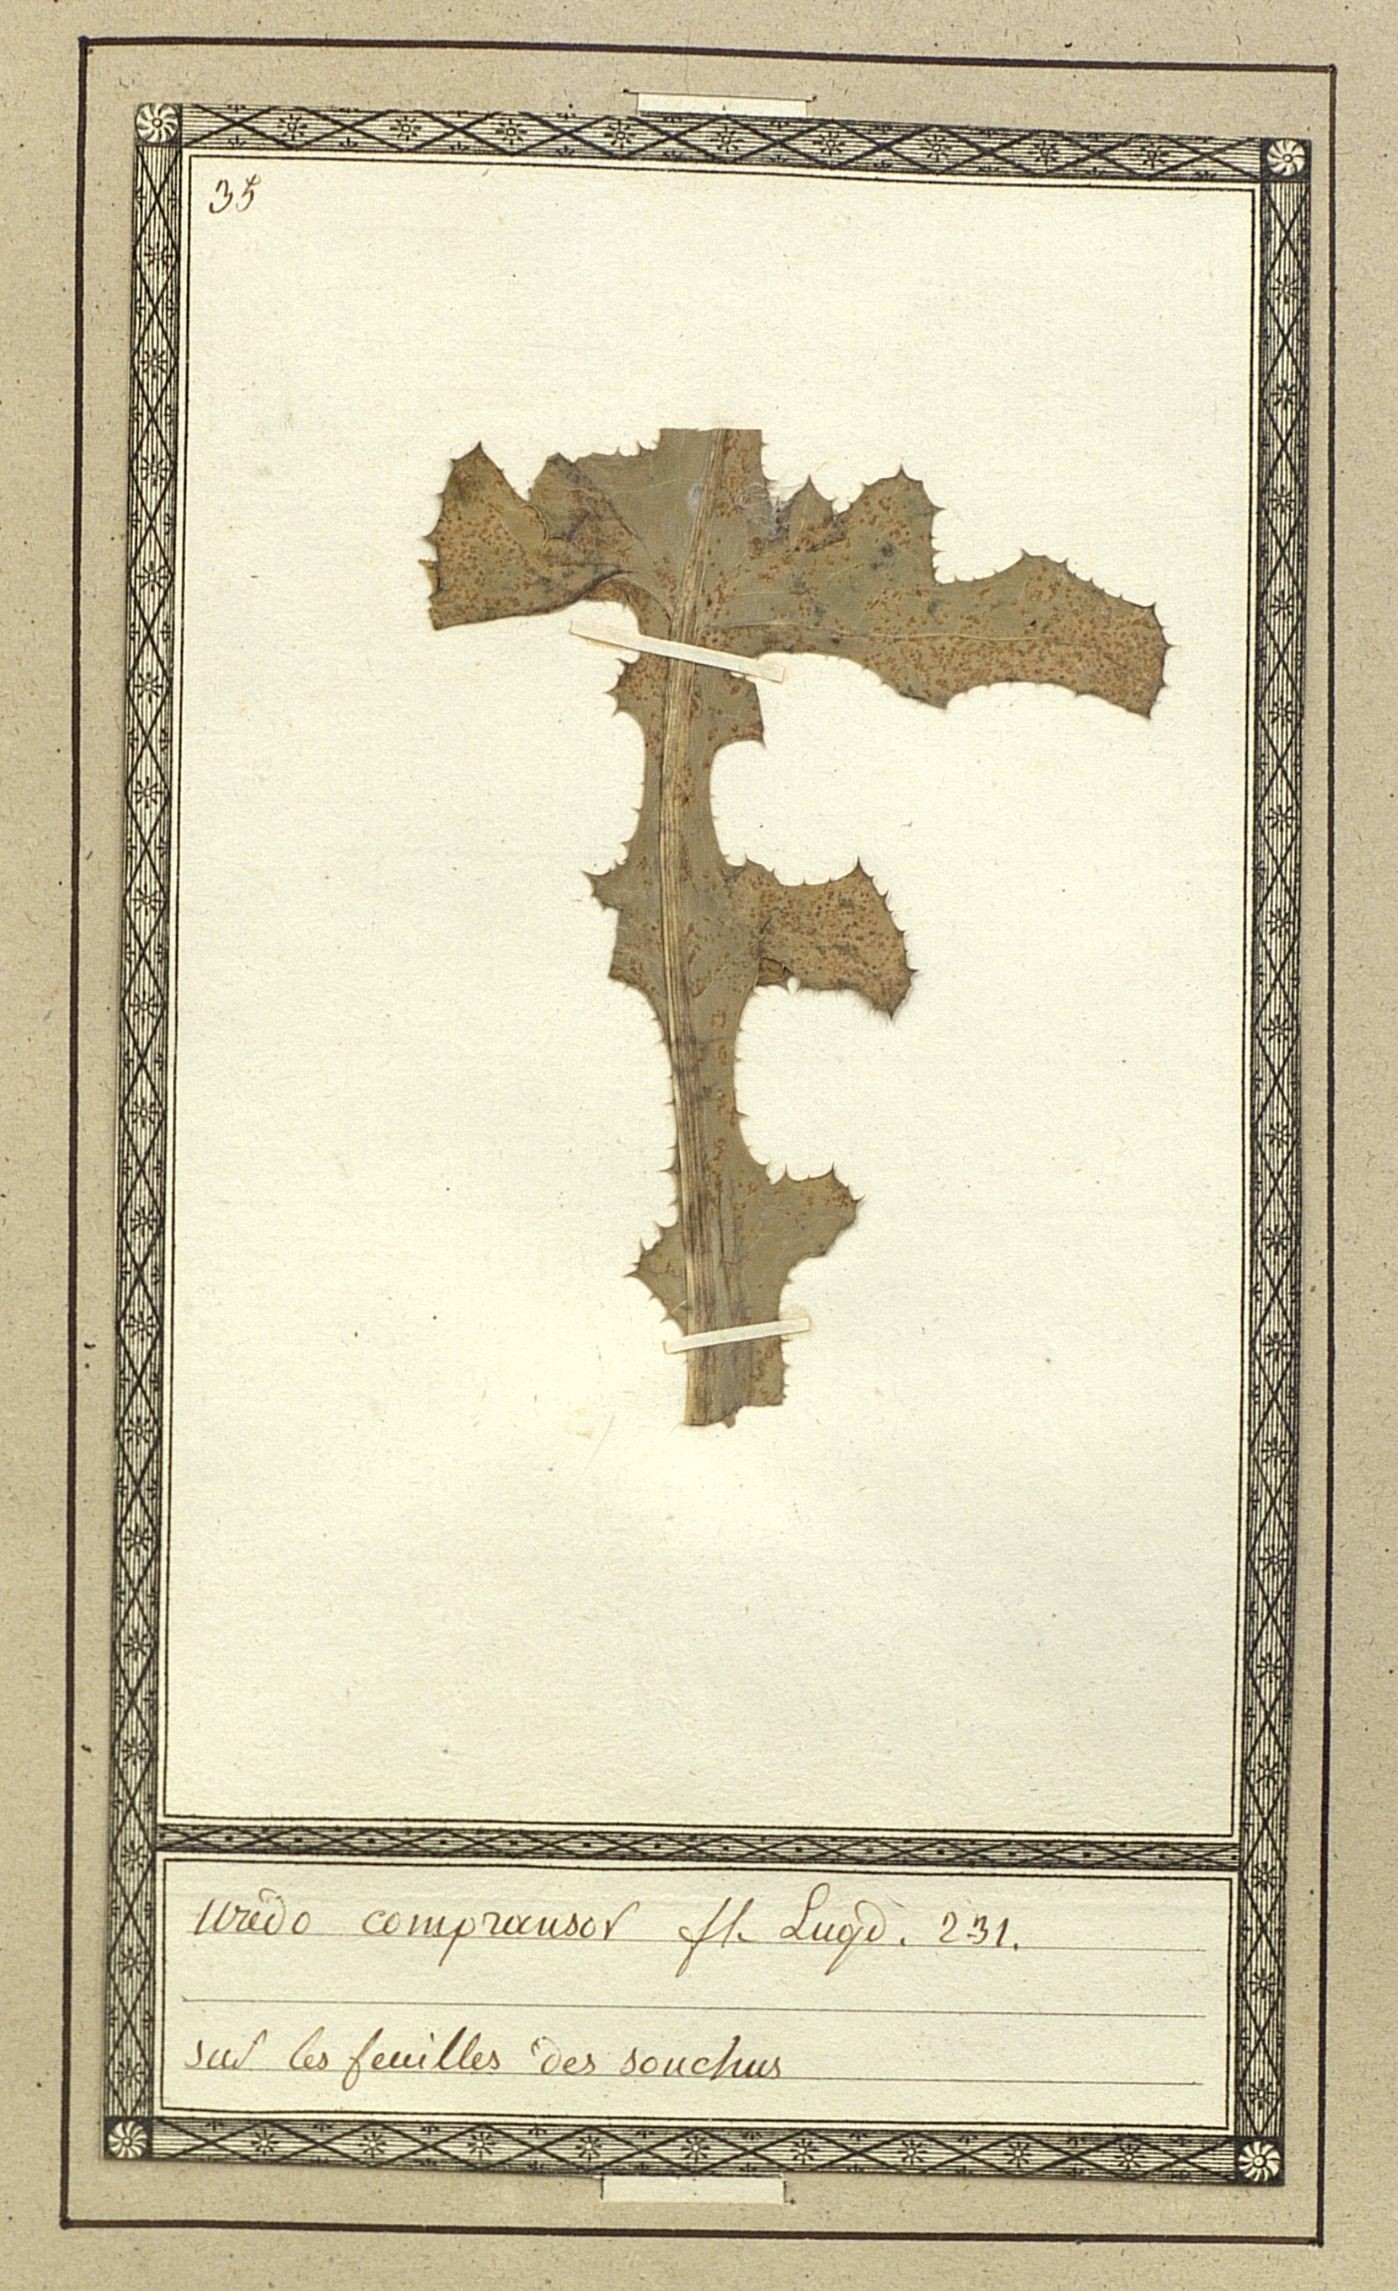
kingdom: Fungi
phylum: Basidiomycota
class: Pucciniomycetes
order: Pucciniales
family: Coleosporiaceae
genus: Coleosporium
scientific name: Coleosporium tussilaginis
